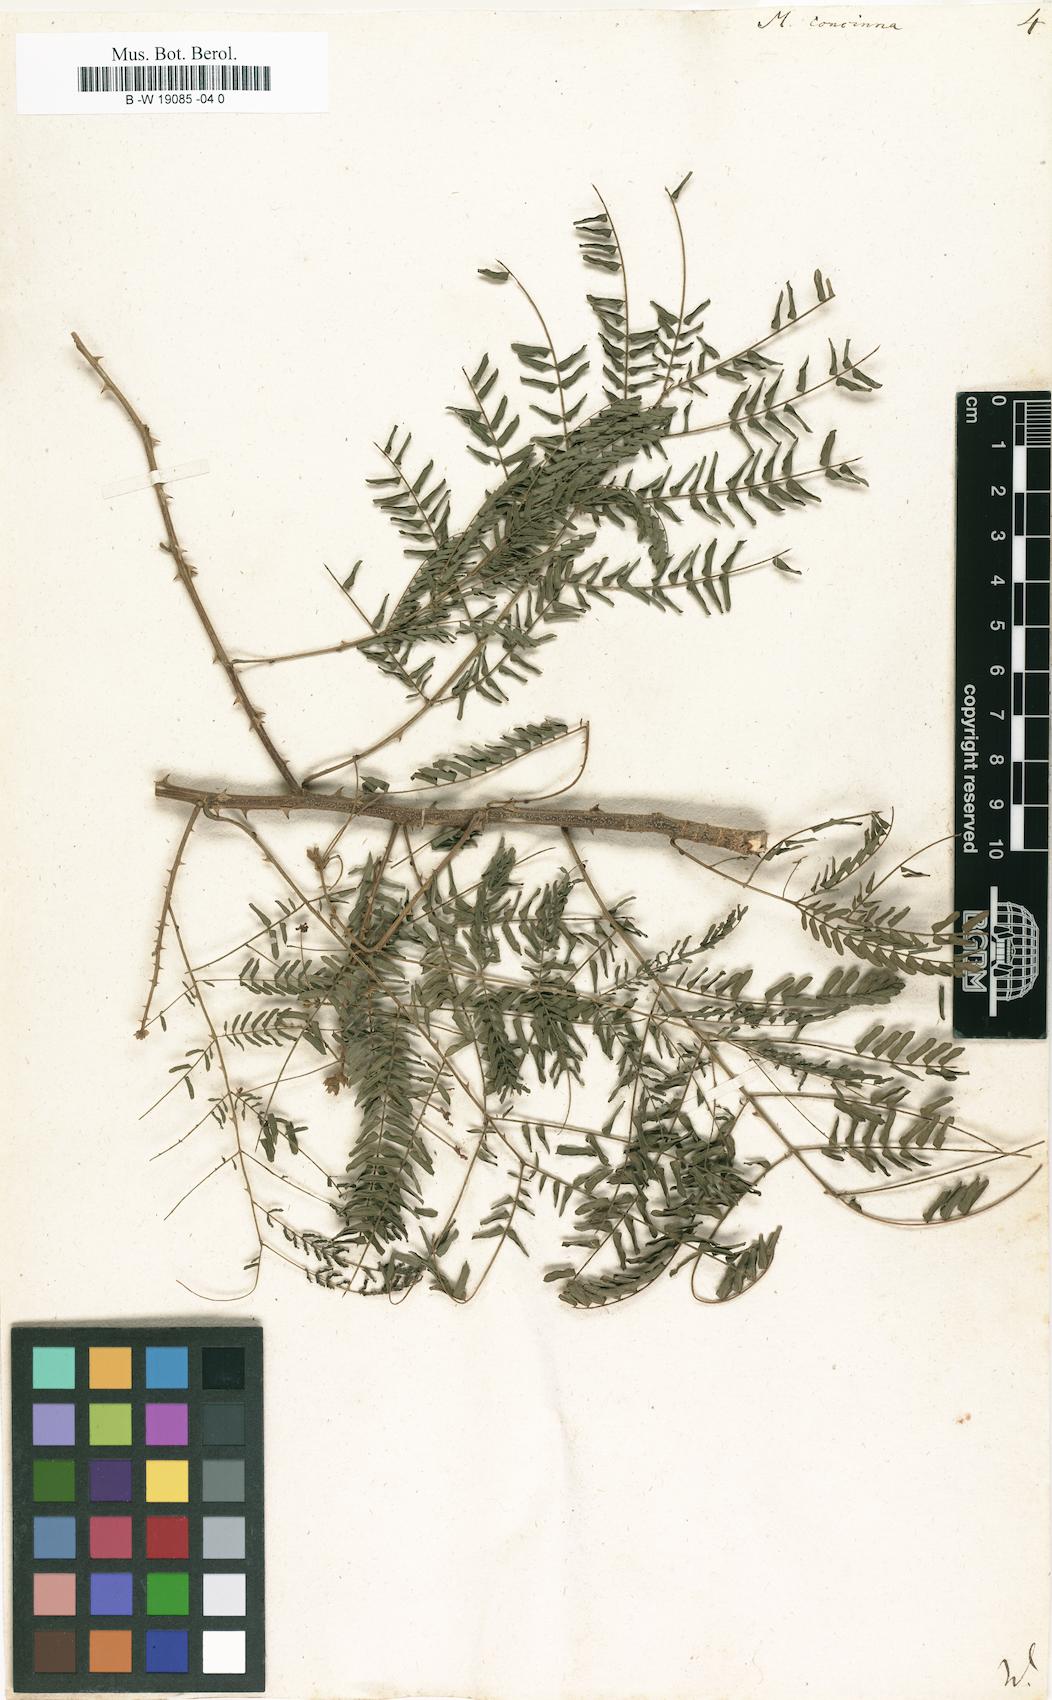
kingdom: Plantae
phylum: Tracheophyta
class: Magnoliopsida
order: Fabales
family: Fabaceae
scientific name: Fabaceae
